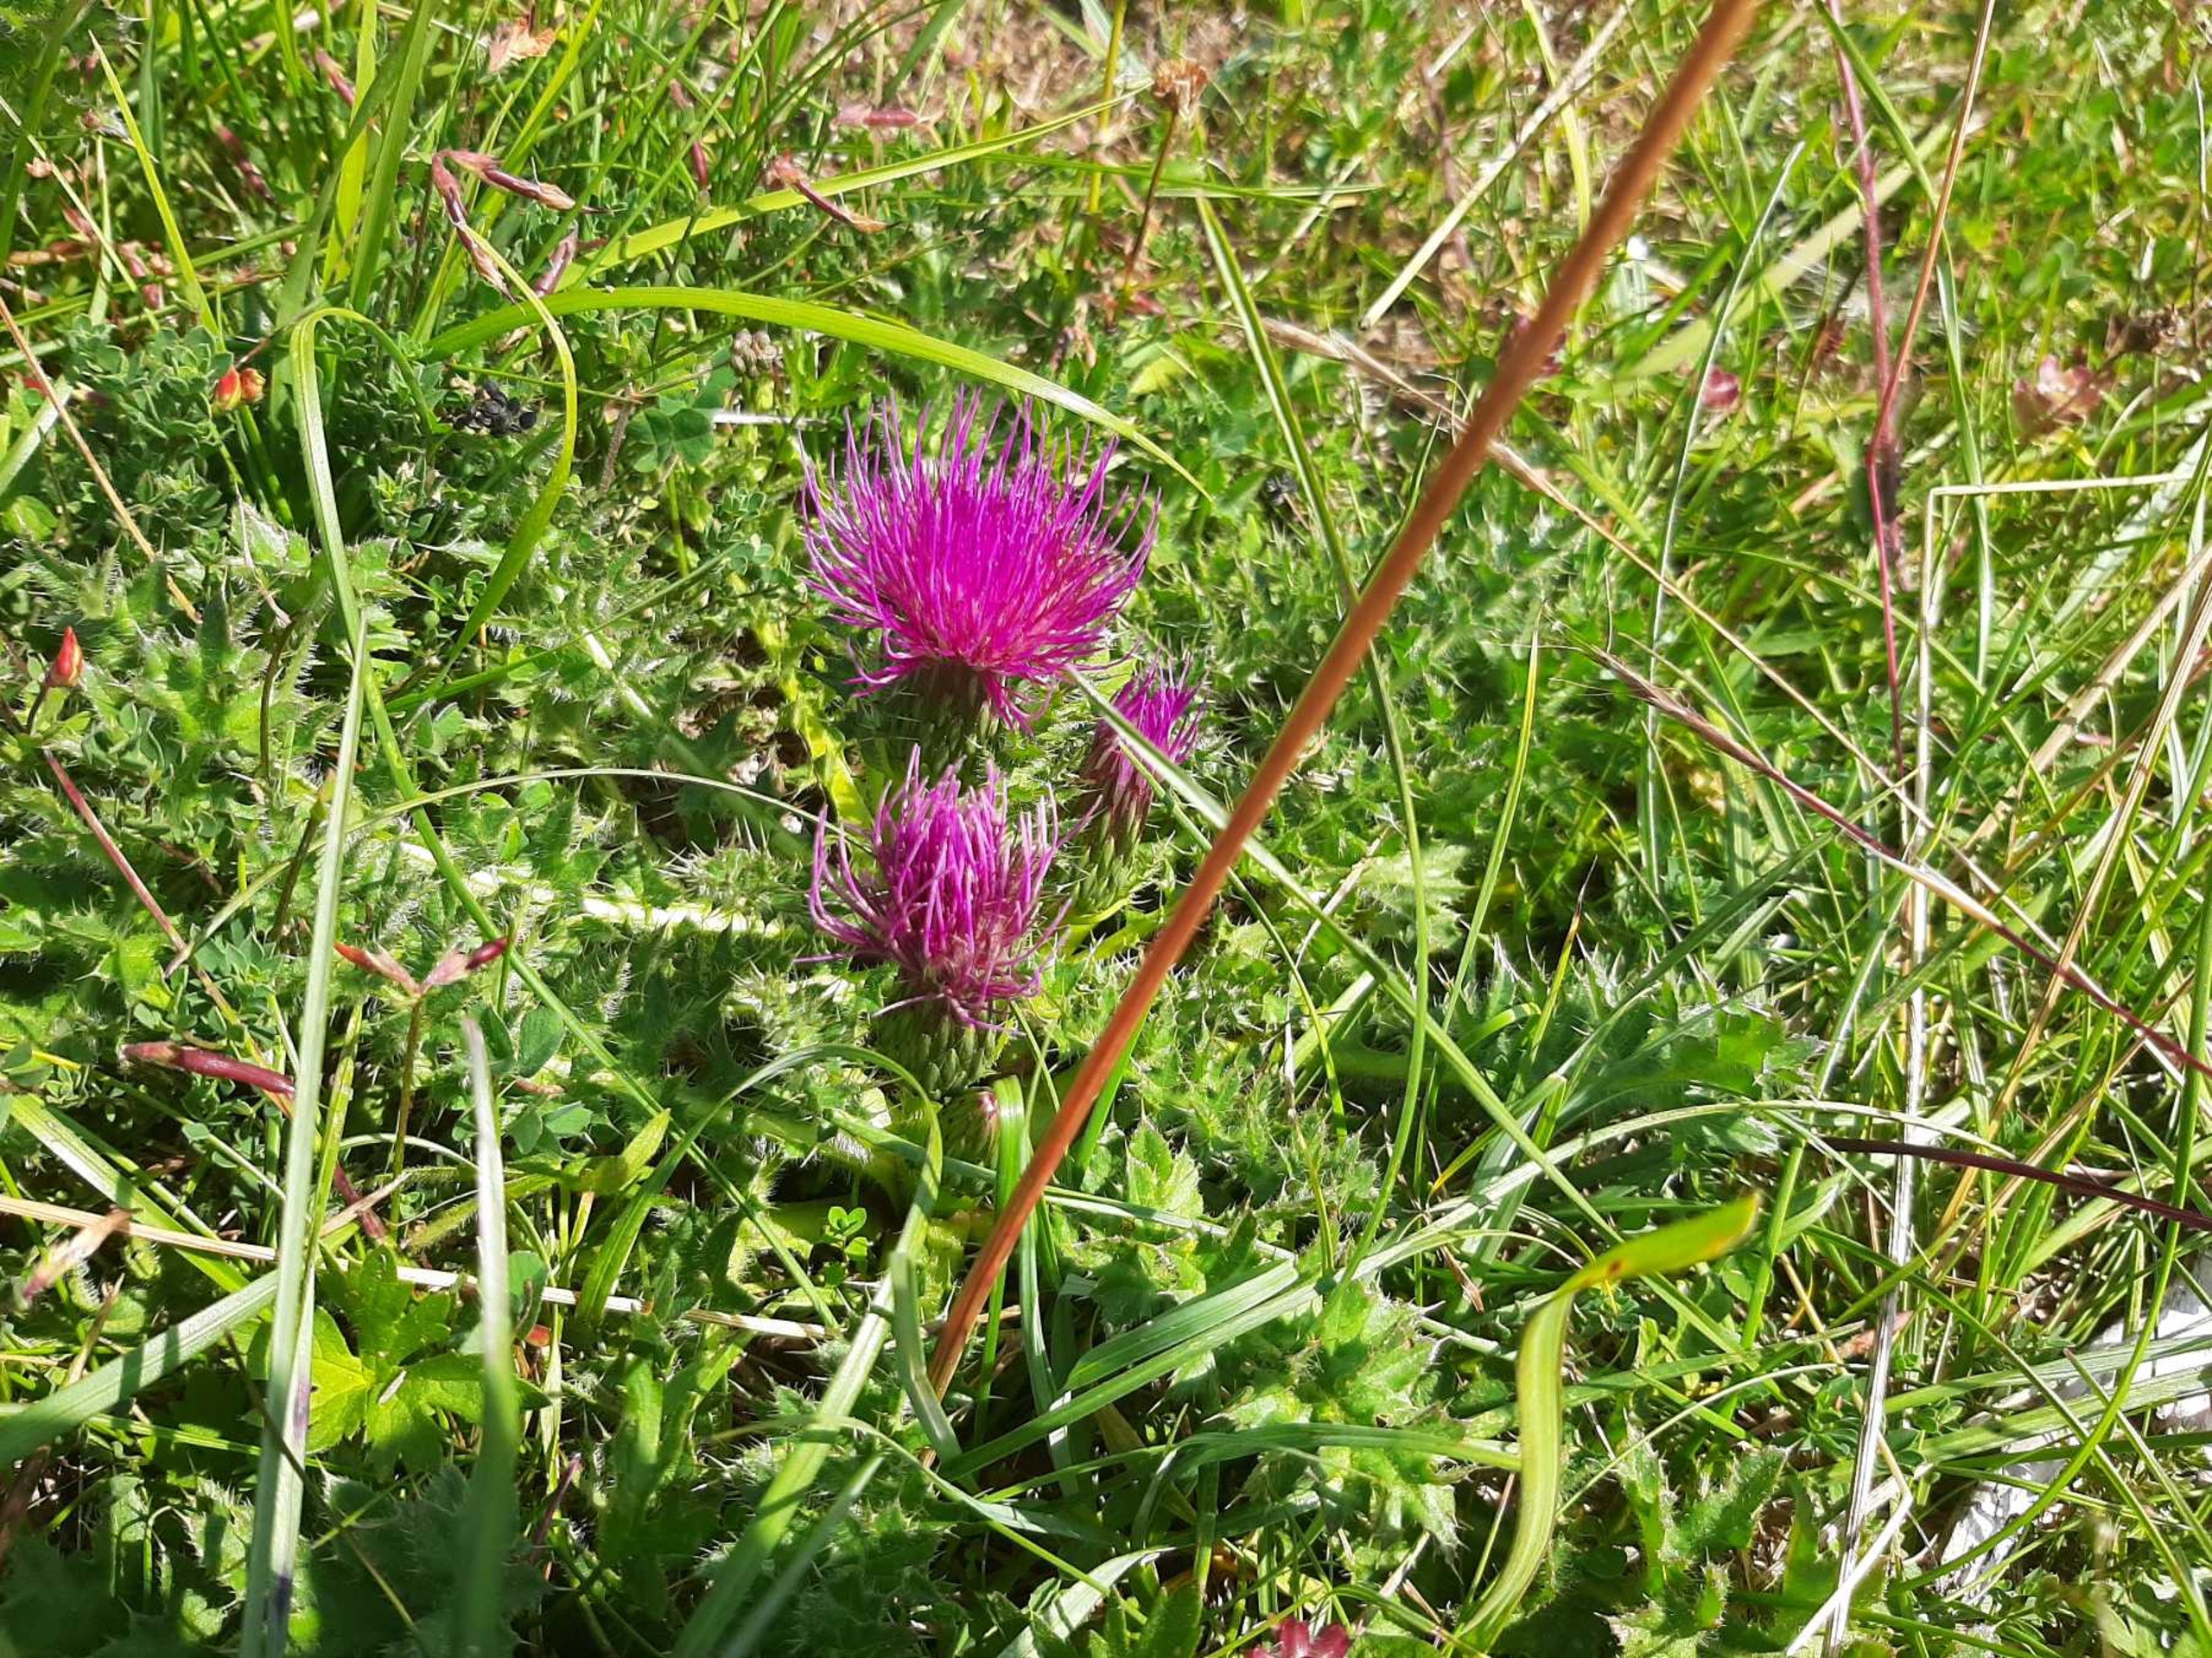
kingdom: Plantae
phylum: Tracheophyta
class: Magnoliopsida
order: Asterales
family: Asteraceae
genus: Cirsium
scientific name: Cirsium acaule
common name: Lav tidsel
